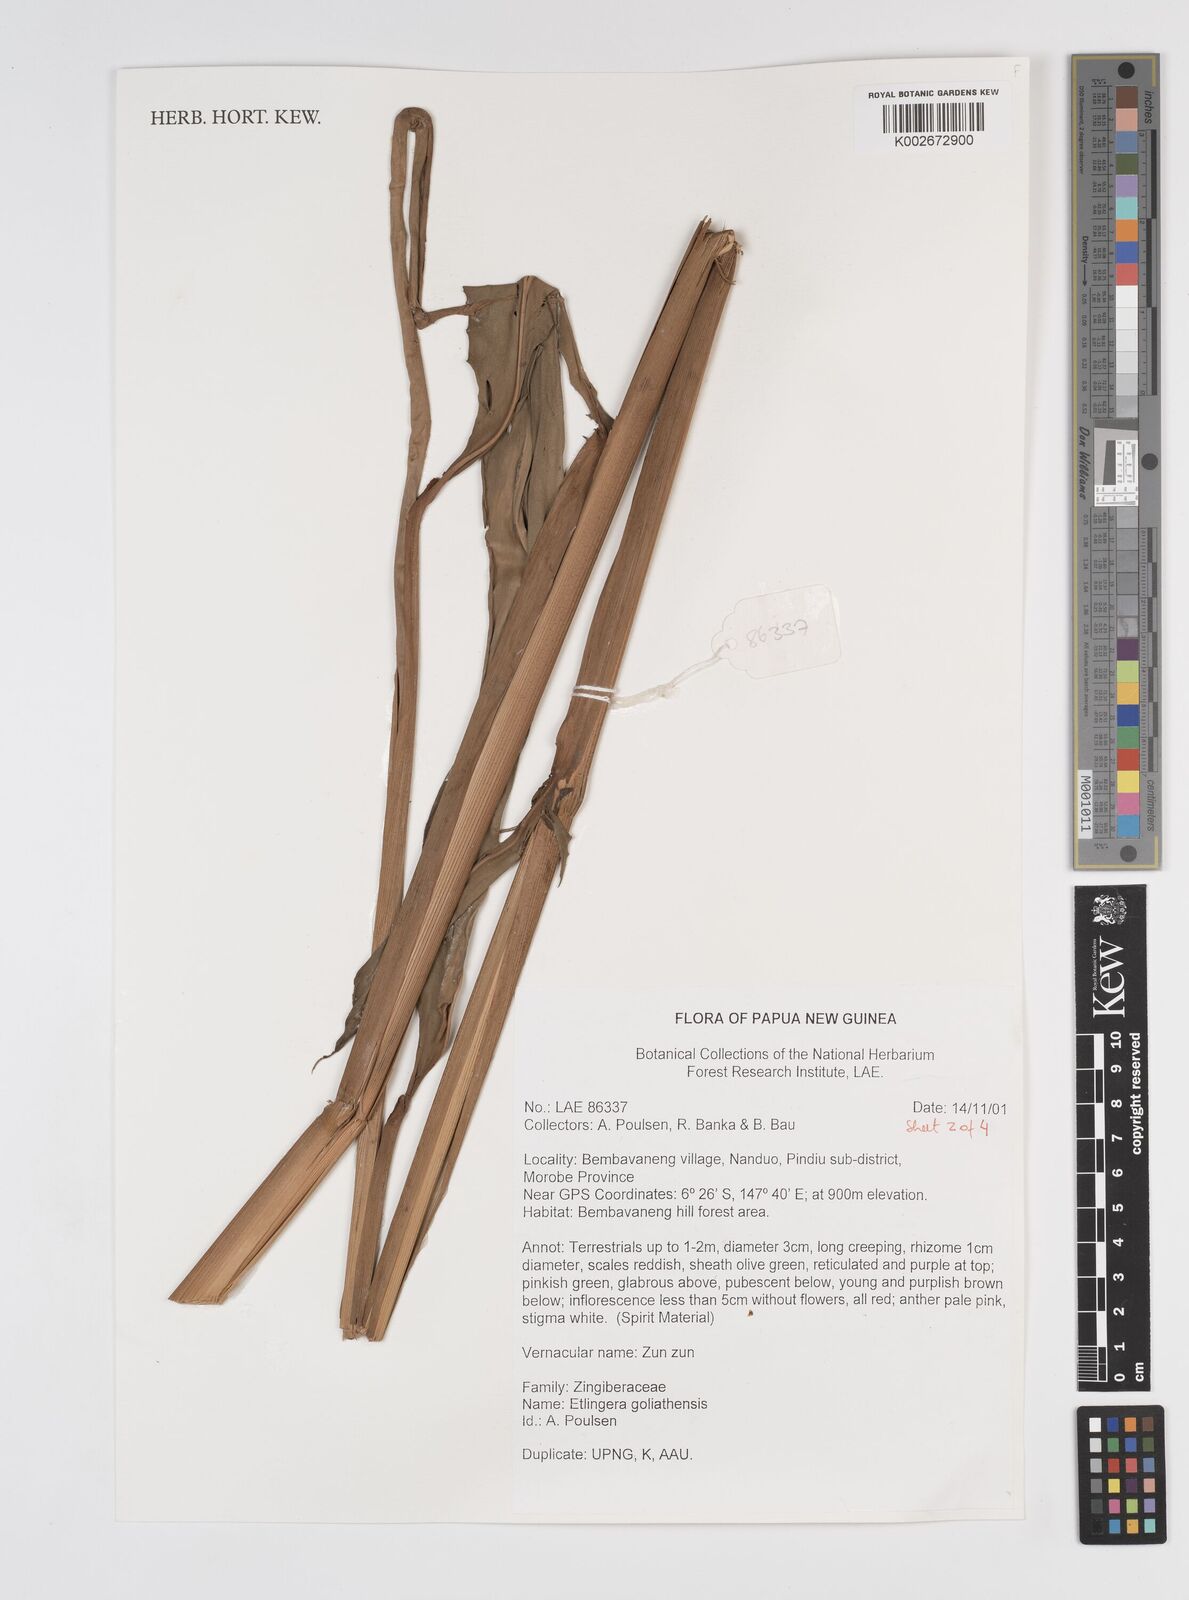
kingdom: Plantae
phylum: Tracheophyta
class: Liliopsida
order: Zingiberales
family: Zingiberaceae
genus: Etlingera
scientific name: Etlingera goliathensis
